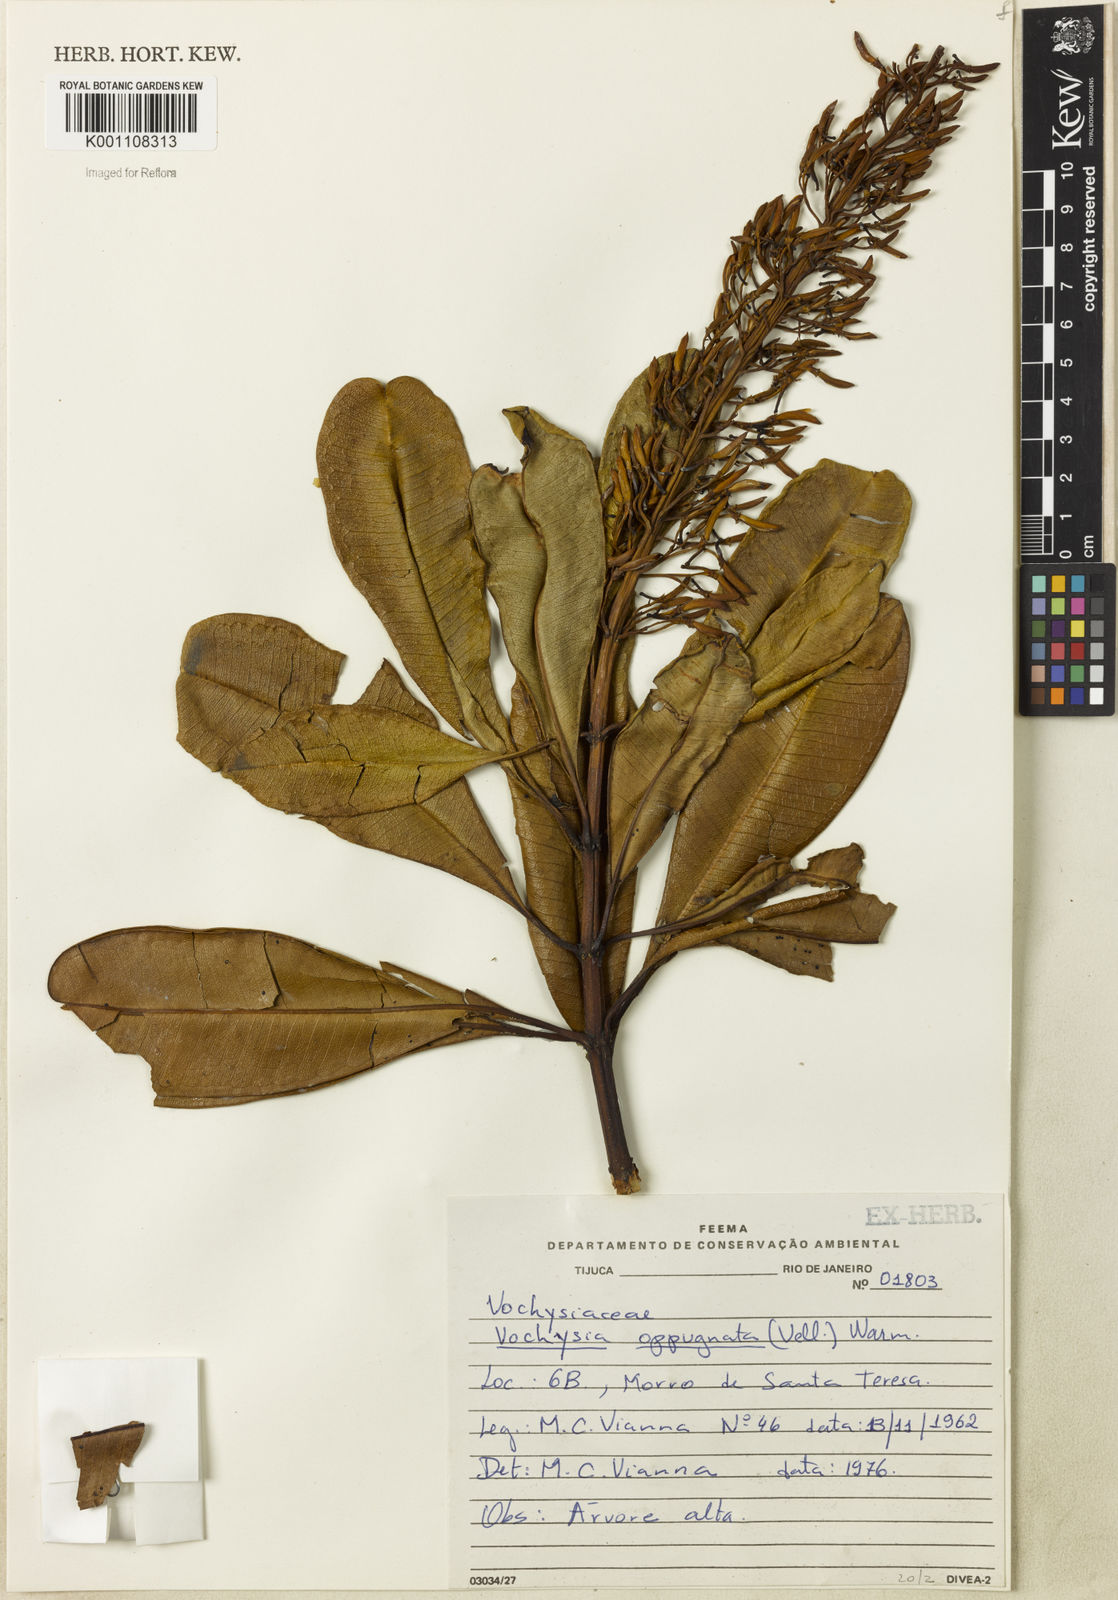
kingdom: Plantae
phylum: Tracheophyta
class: Magnoliopsida
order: Myrtales
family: Vochysiaceae
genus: Vochysia
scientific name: Vochysia oppugnata
